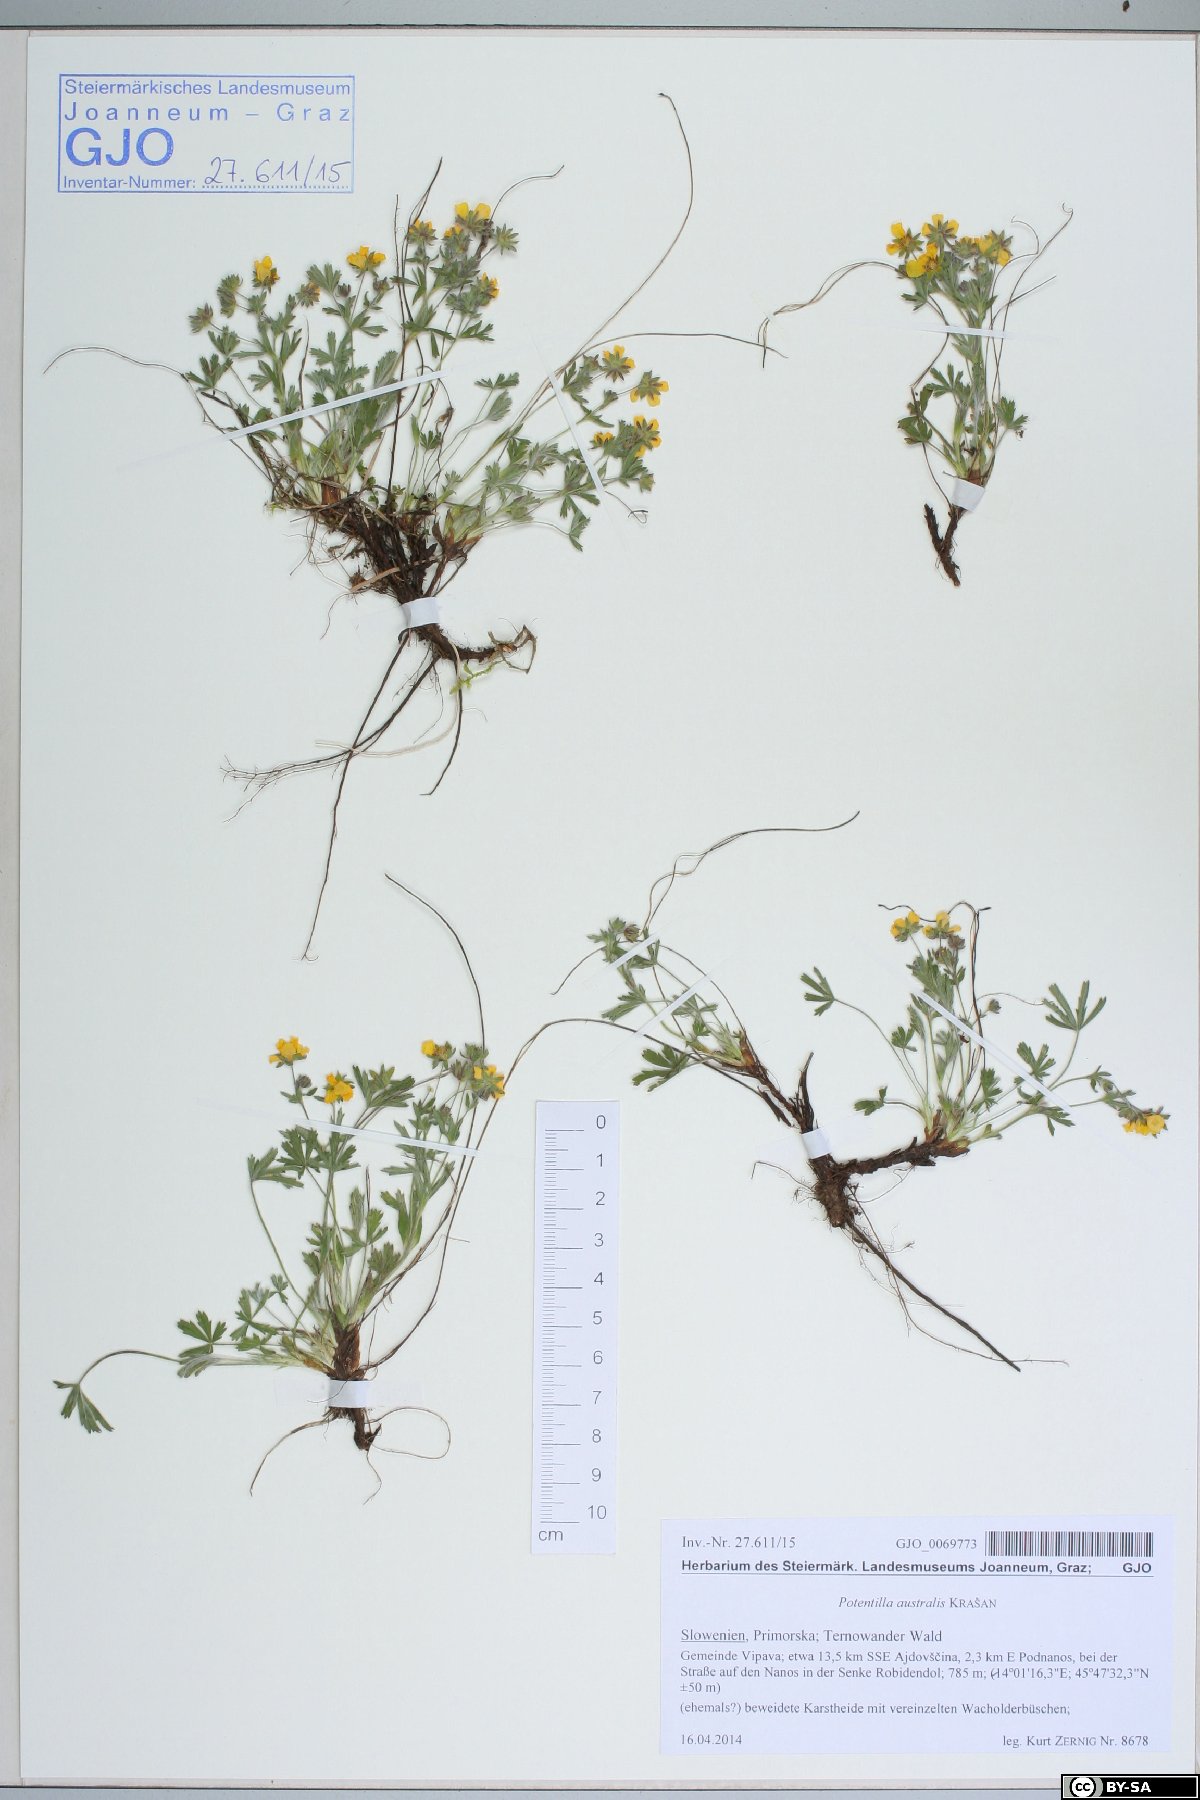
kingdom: Plantae
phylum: Tracheophyta
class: Magnoliopsida
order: Rosales
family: Rosaceae
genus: Potentilla
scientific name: Potentilla heptaphylla
